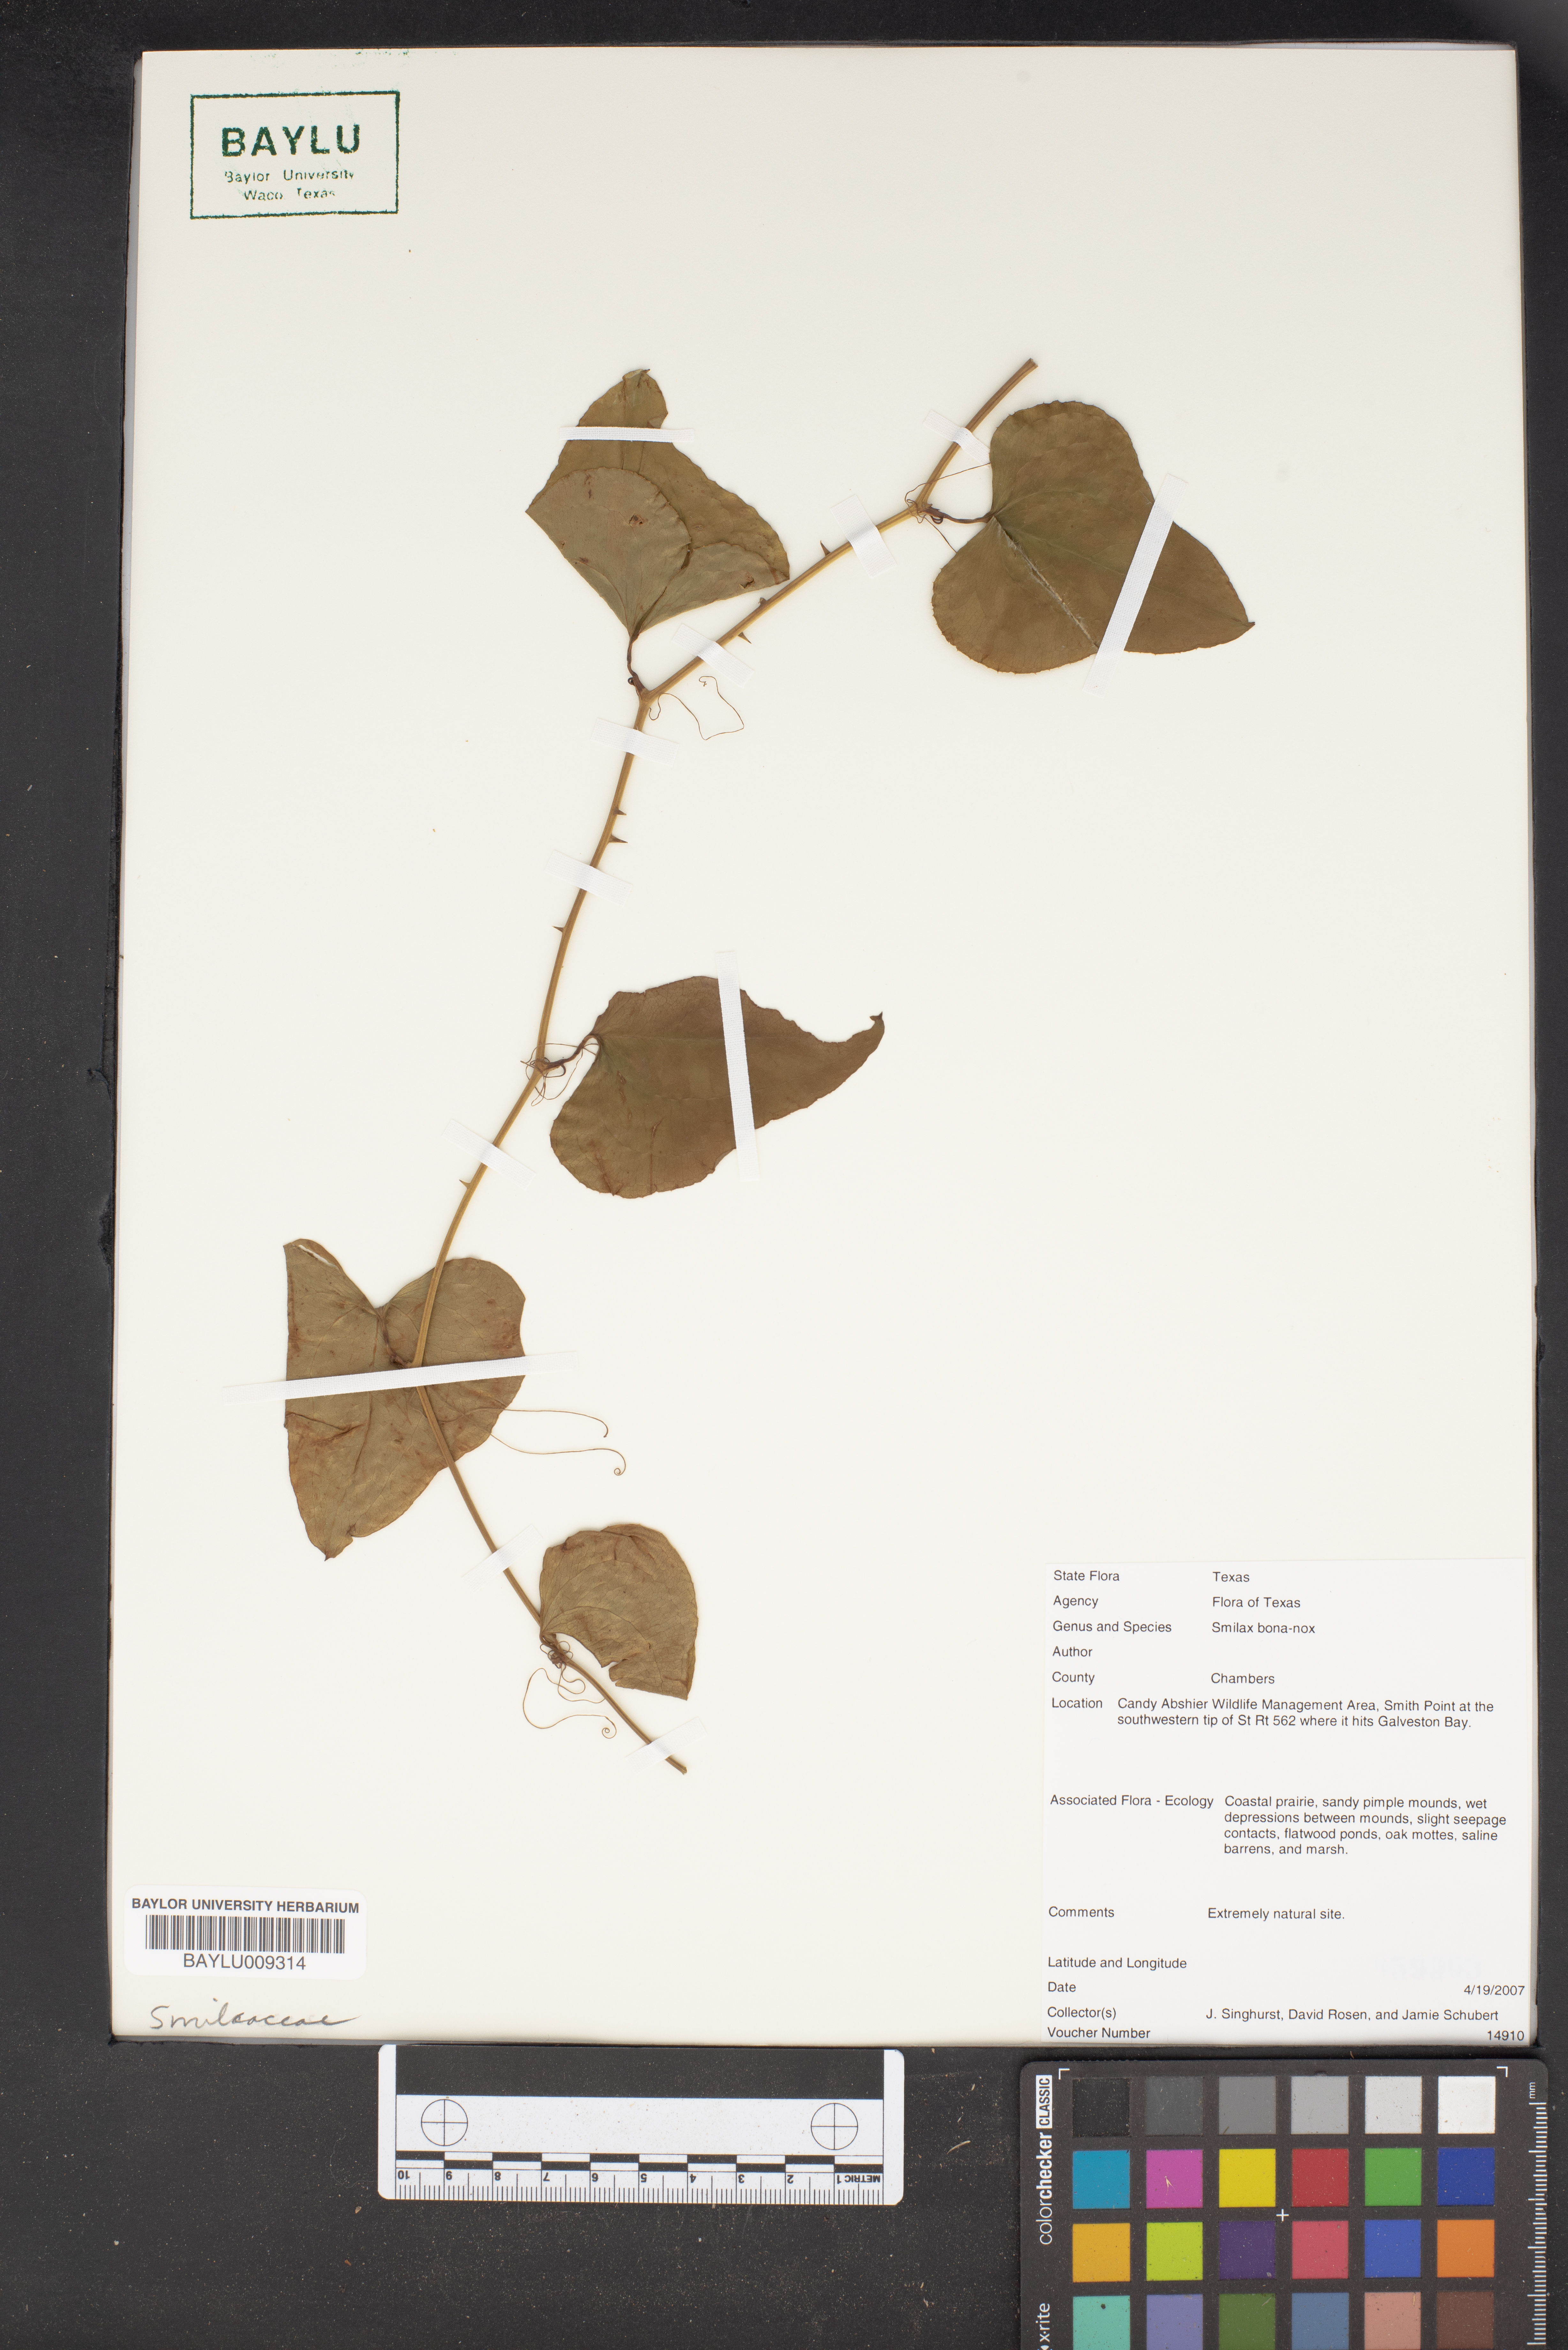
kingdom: Plantae
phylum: Tracheophyta
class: Liliopsida
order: Liliales
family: Smilacaceae
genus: Smilax
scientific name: Smilax bona-nox
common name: Catbrier
